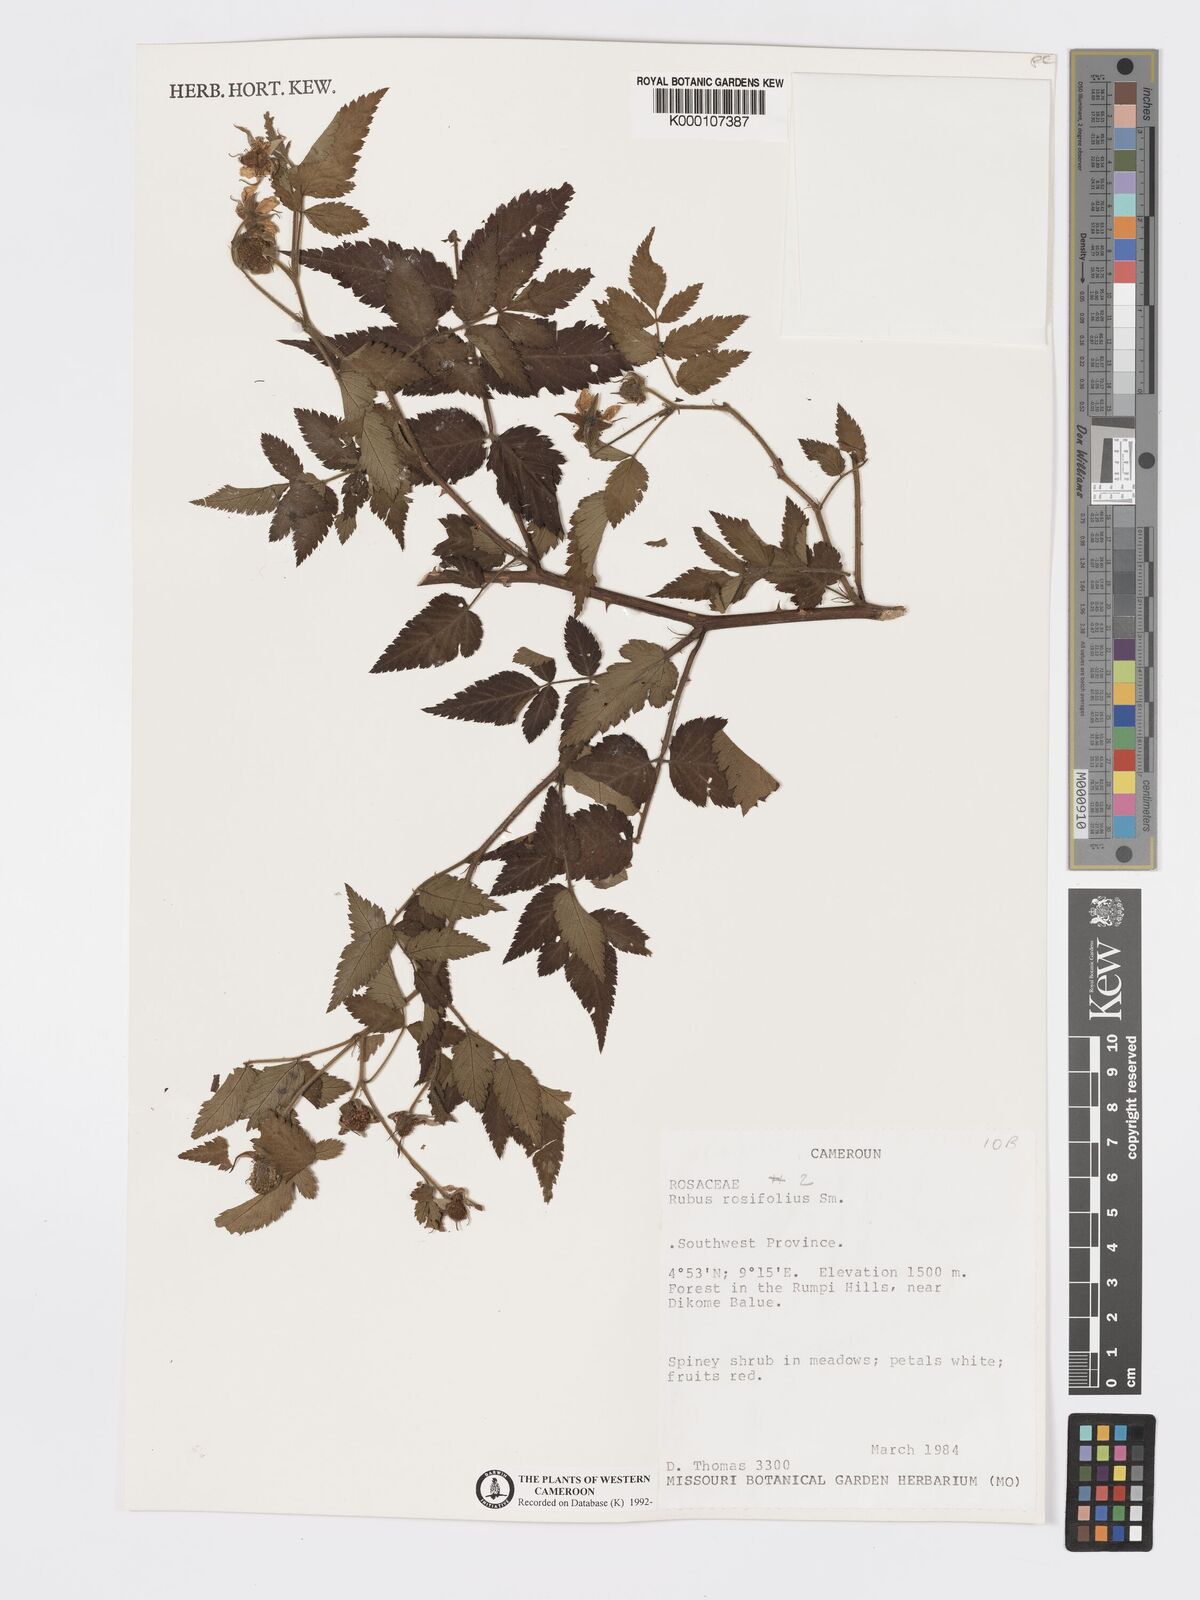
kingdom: Plantae
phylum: Tracheophyta
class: Magnoliopsida
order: Rosales
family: Rosaceae
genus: Rubus
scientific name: Rubus rosifolius
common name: Roseleaf raspberry
